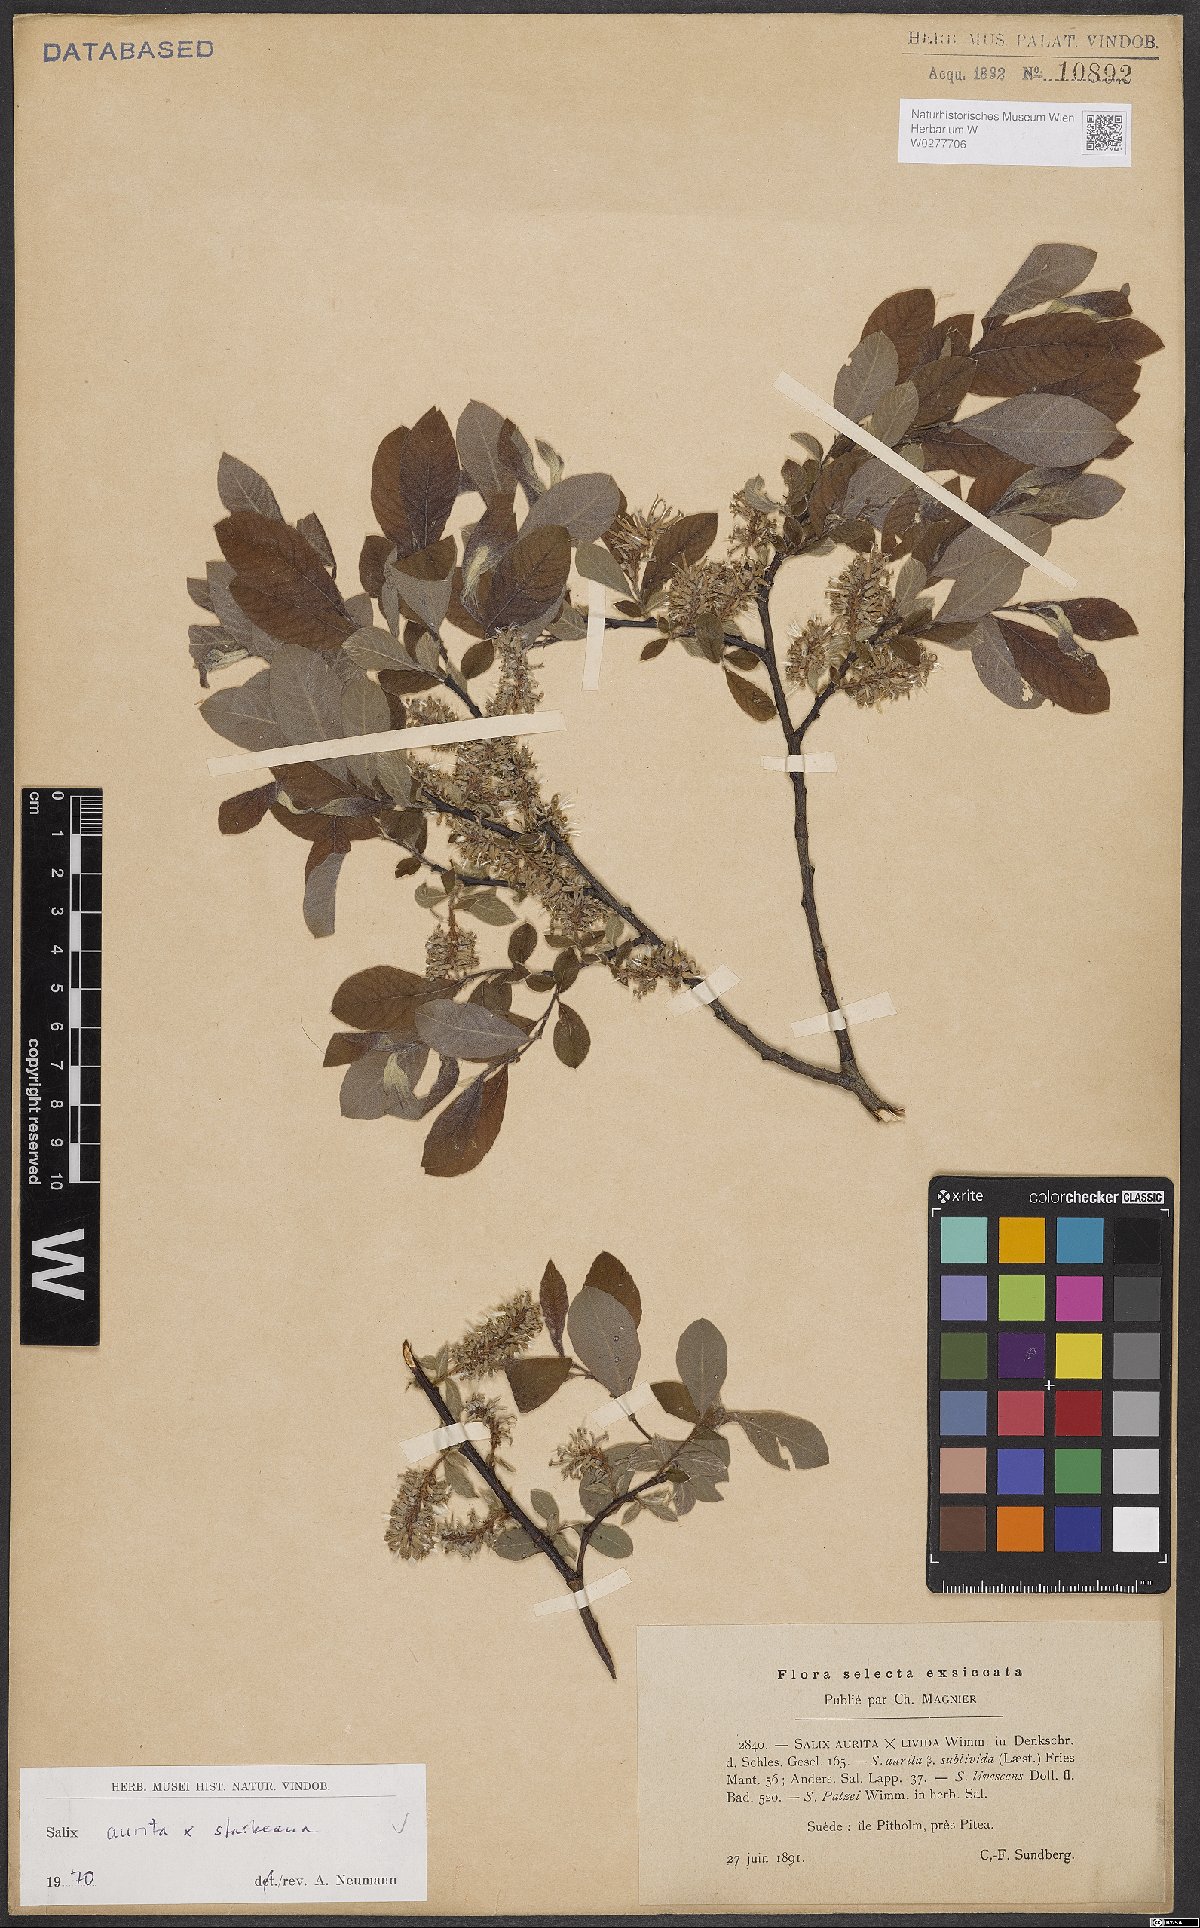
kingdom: Plantae
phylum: Tracheophyta
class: Magnoliopsida
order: Malpighiales
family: Salicaceae
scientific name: Salicaceae
